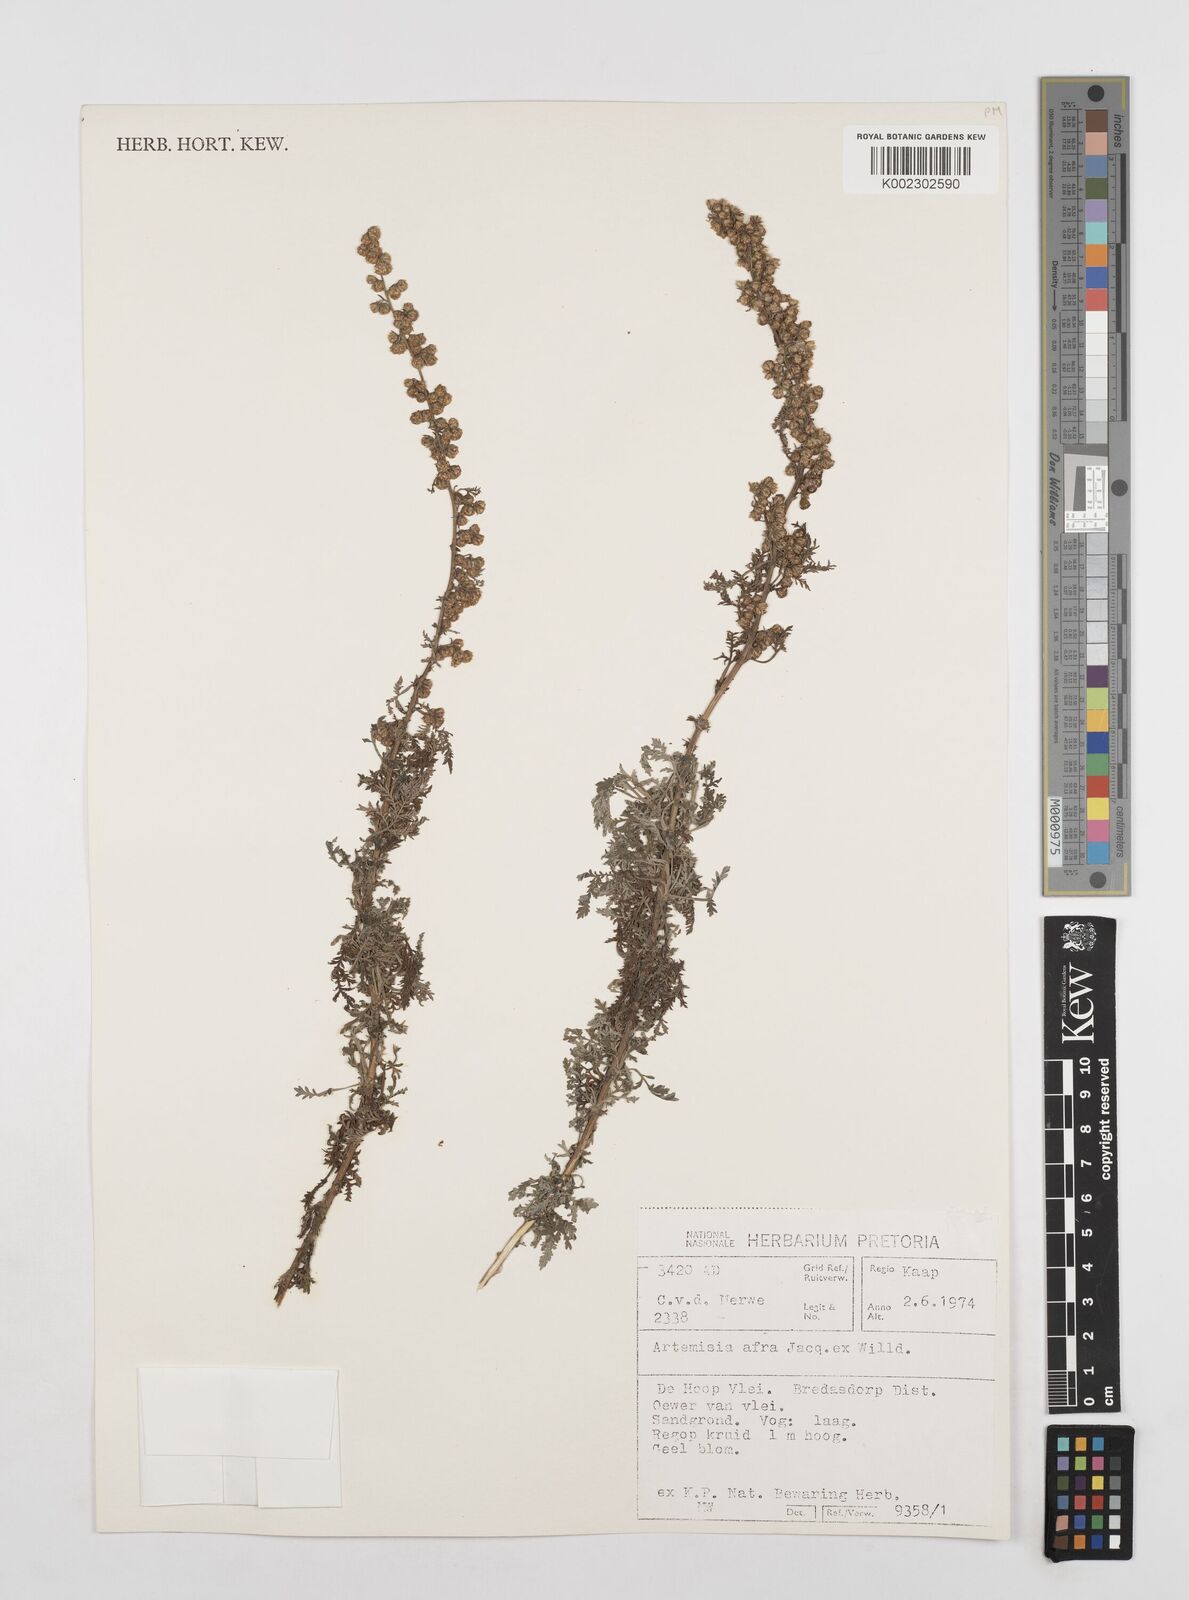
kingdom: Plantae
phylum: Tracheophyta
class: Magnoliopsida
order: Asterales
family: Asteraceae
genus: Artemisia
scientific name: Artemisia afra
